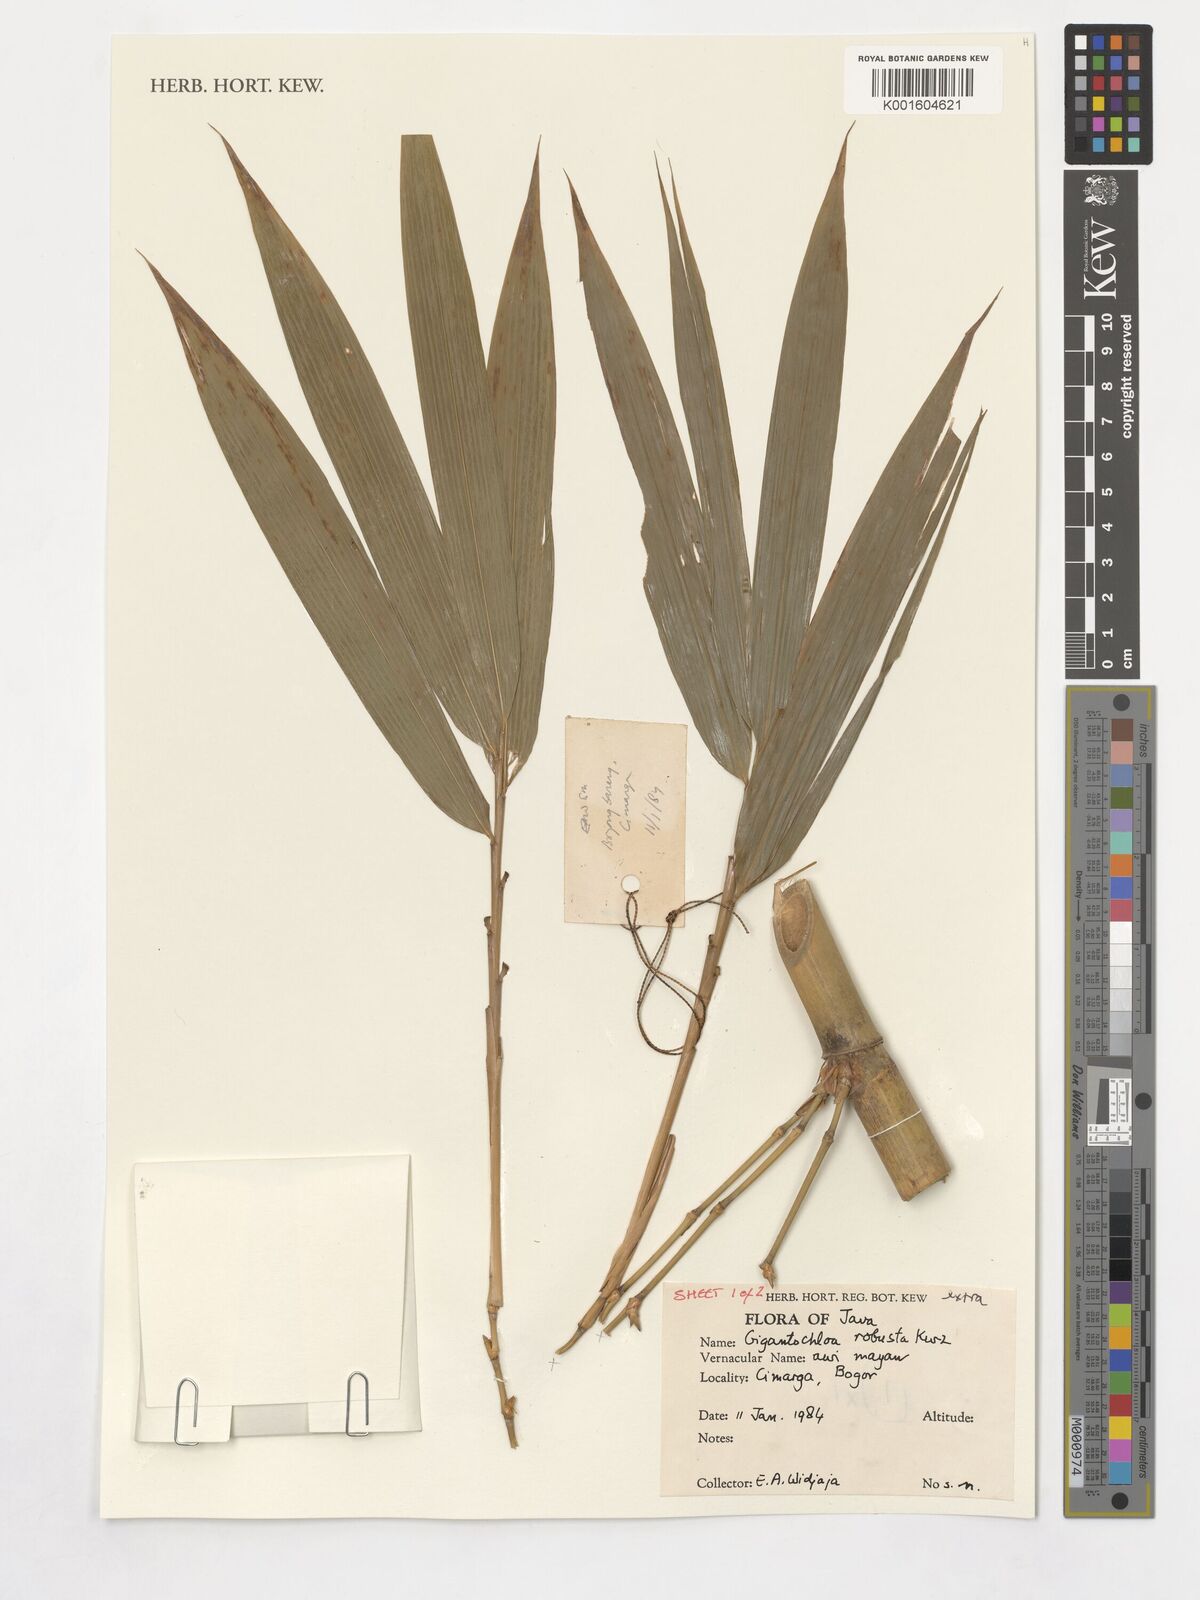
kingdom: Plantae
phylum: Tracheophyta
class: Liliopsida
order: Poales
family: Poaceae
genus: Gigantochloa
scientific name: Gigantochloa robusta
